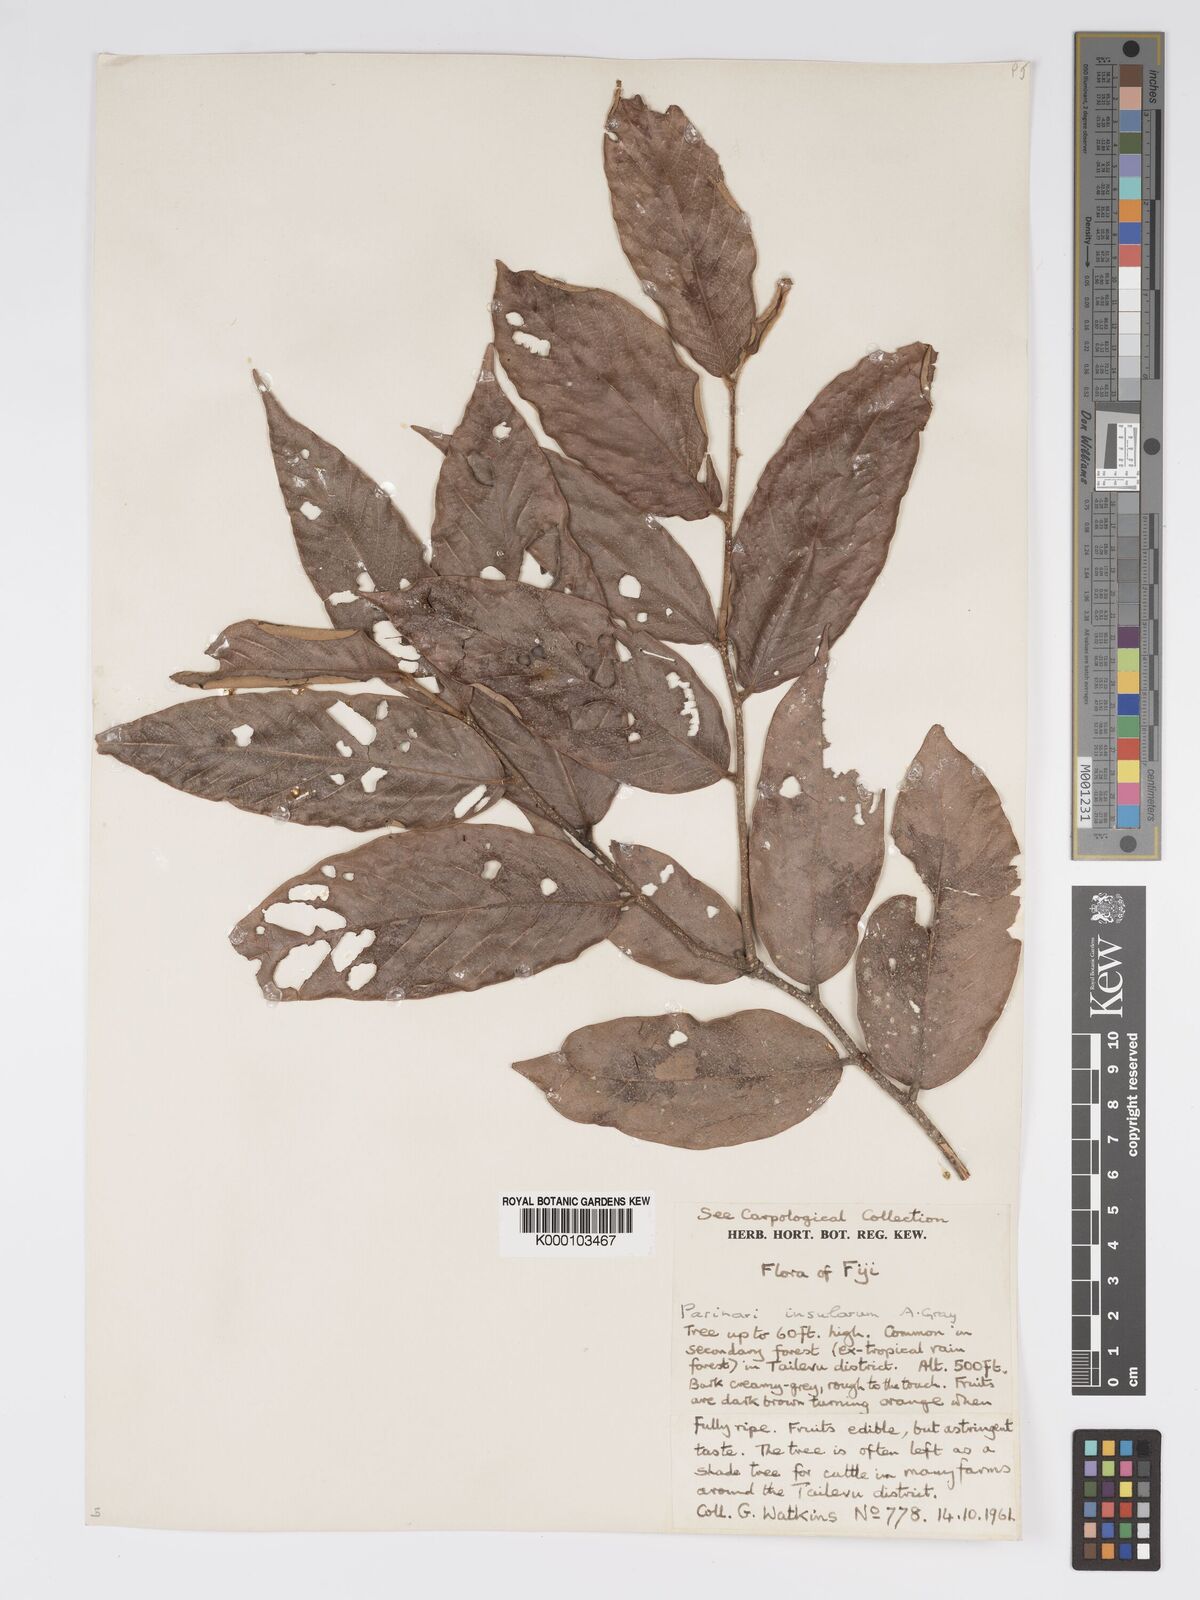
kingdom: Plantae
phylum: Tracheophyta
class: Magnoliopsida
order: Malpighiales
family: Chrysobalanaceae
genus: Parinari
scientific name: Parinari insularum
